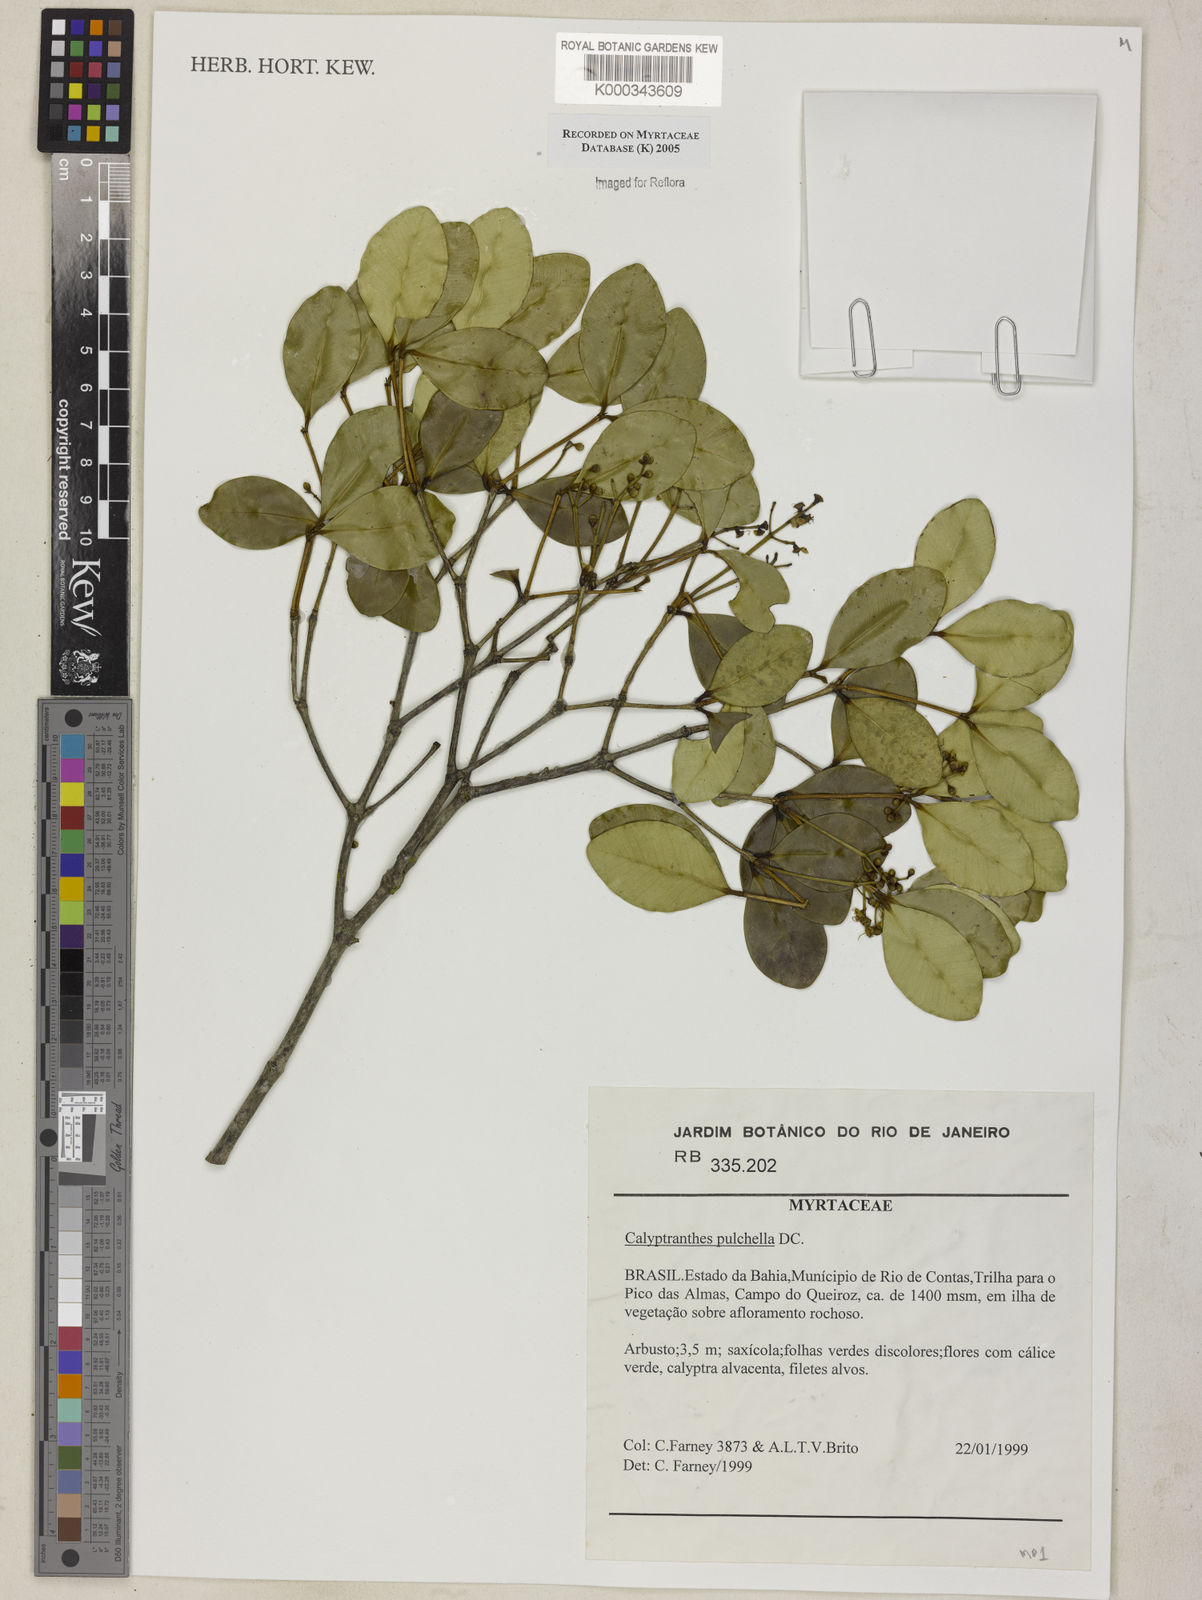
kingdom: Plantae
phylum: Tracheophyta
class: Magnoliopsida
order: Myrtales
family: Myrtaceae
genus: Myrcia
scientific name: Myrcia pulchella
